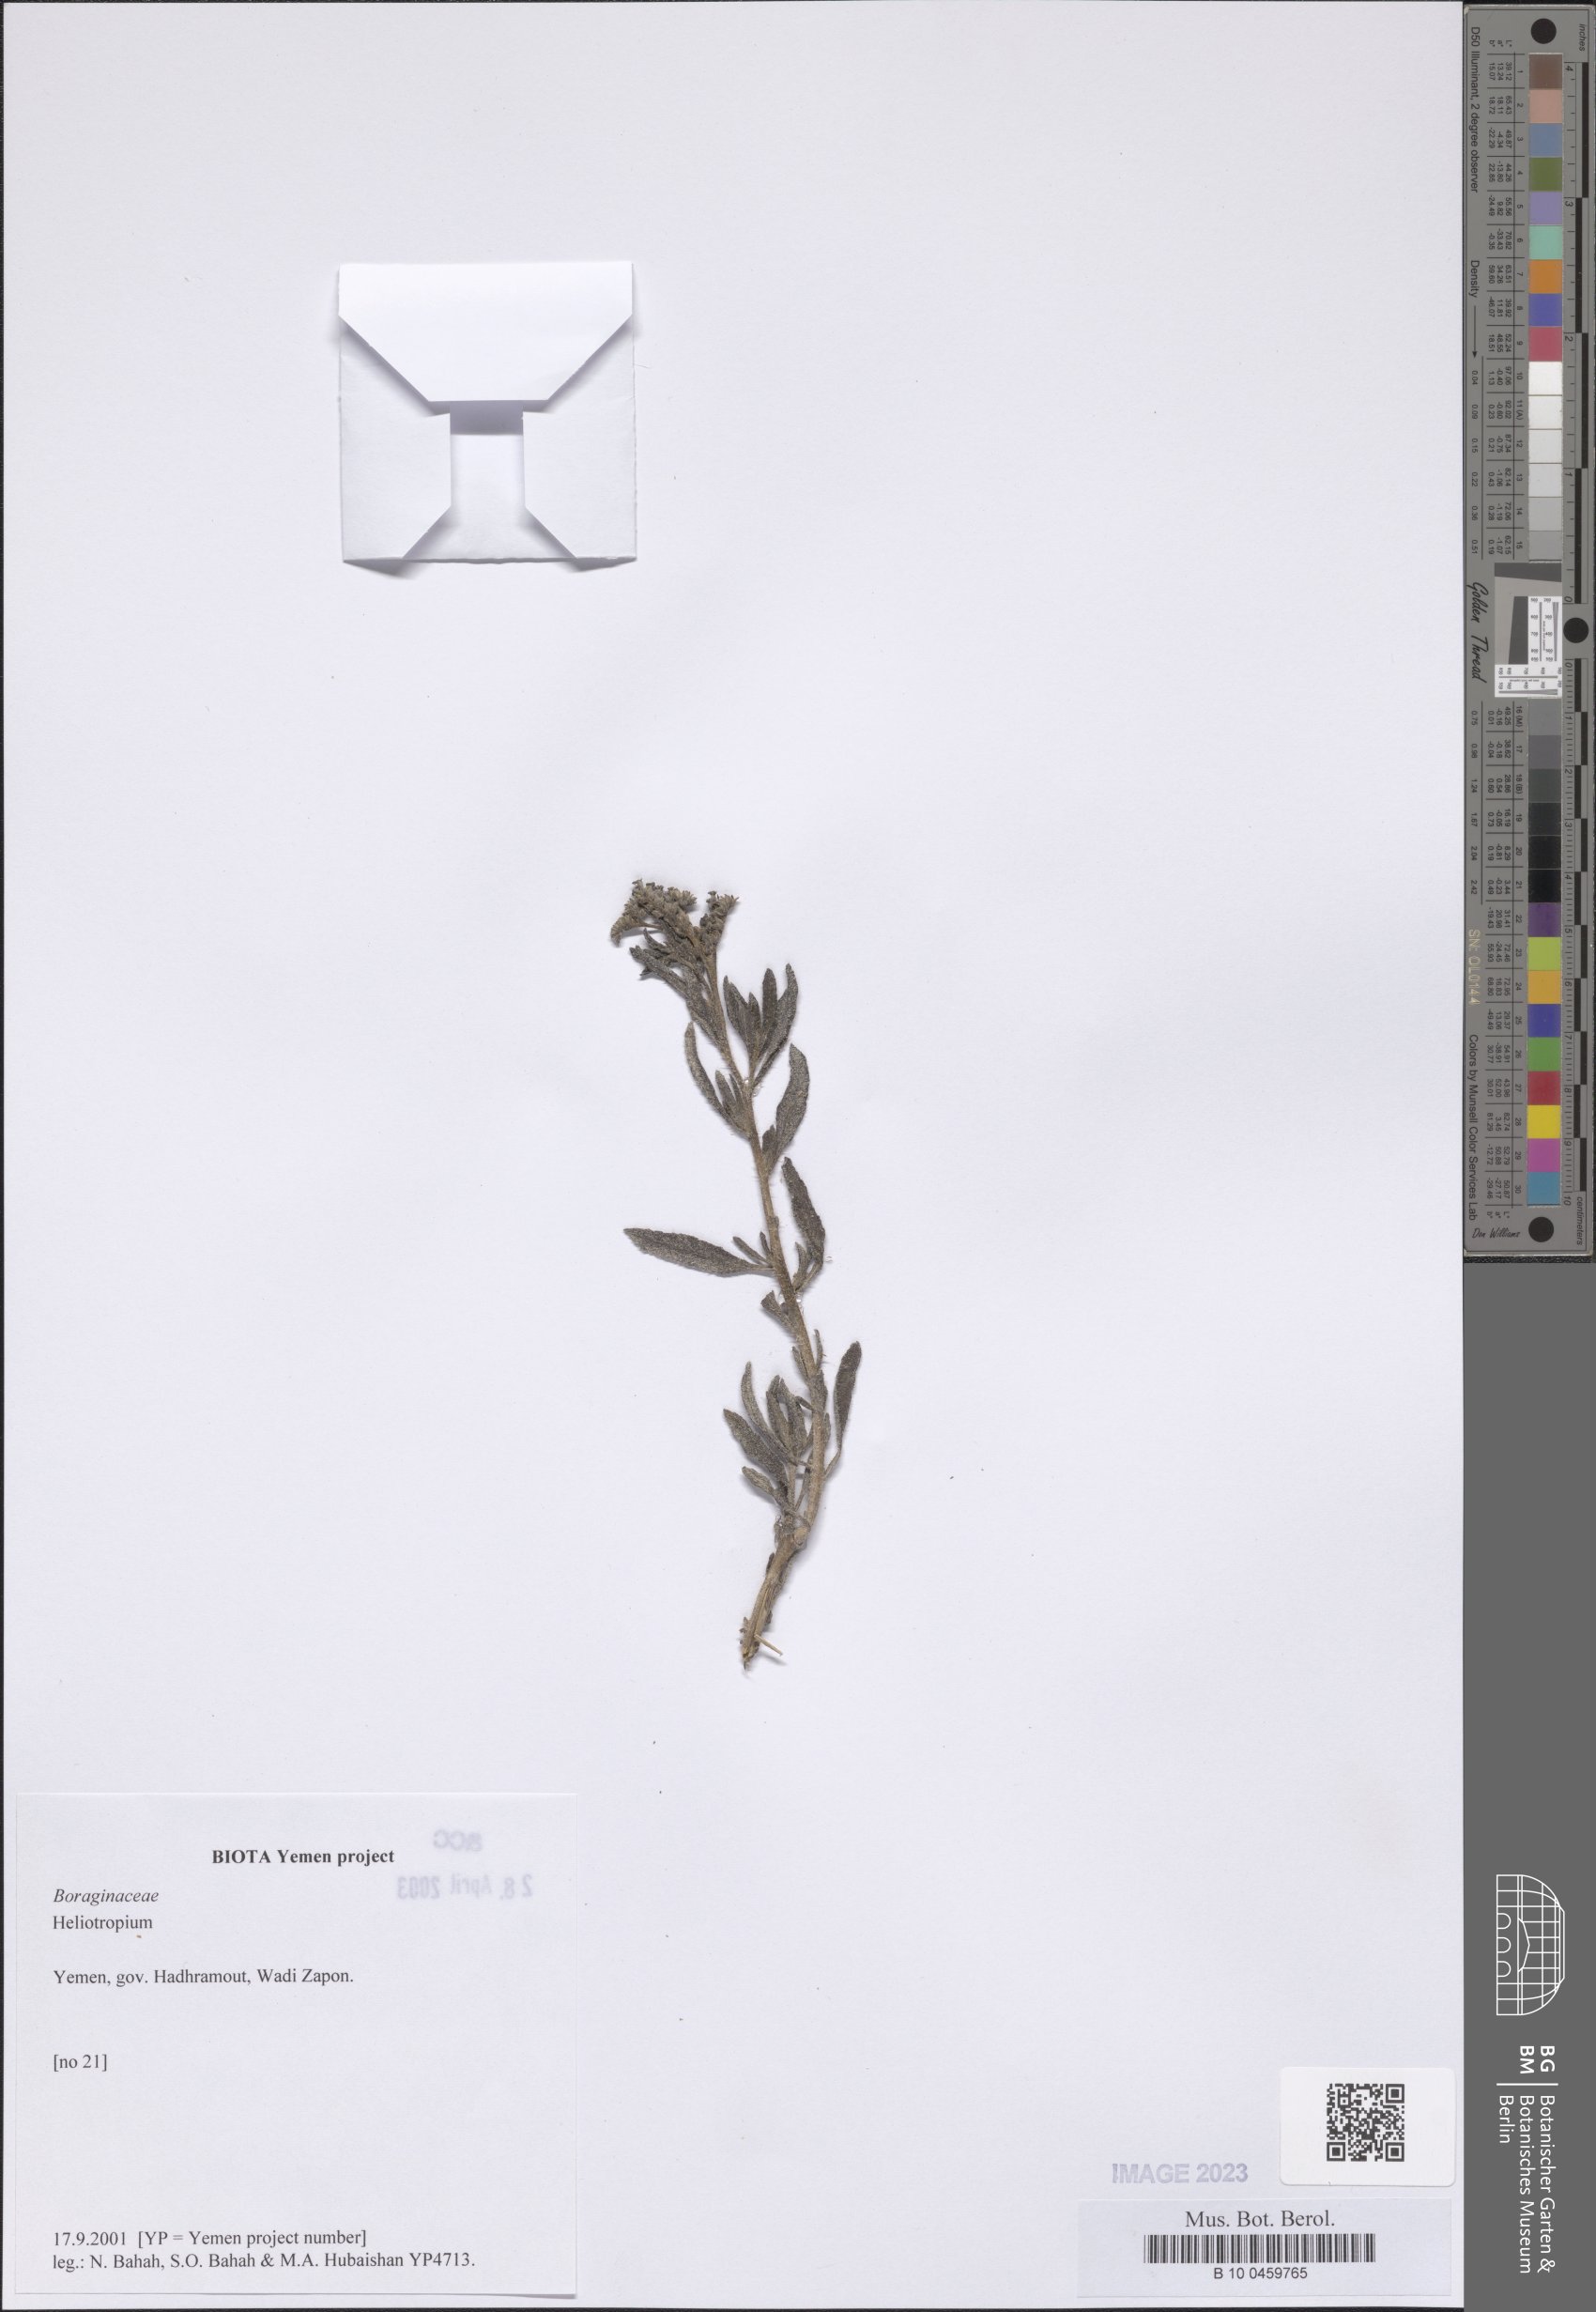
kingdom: Plantae
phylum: Tracheophyta
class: Magnoliopsida
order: Boraginales
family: Heliotropiaceae
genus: Heliotropium
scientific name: Heliotropium
